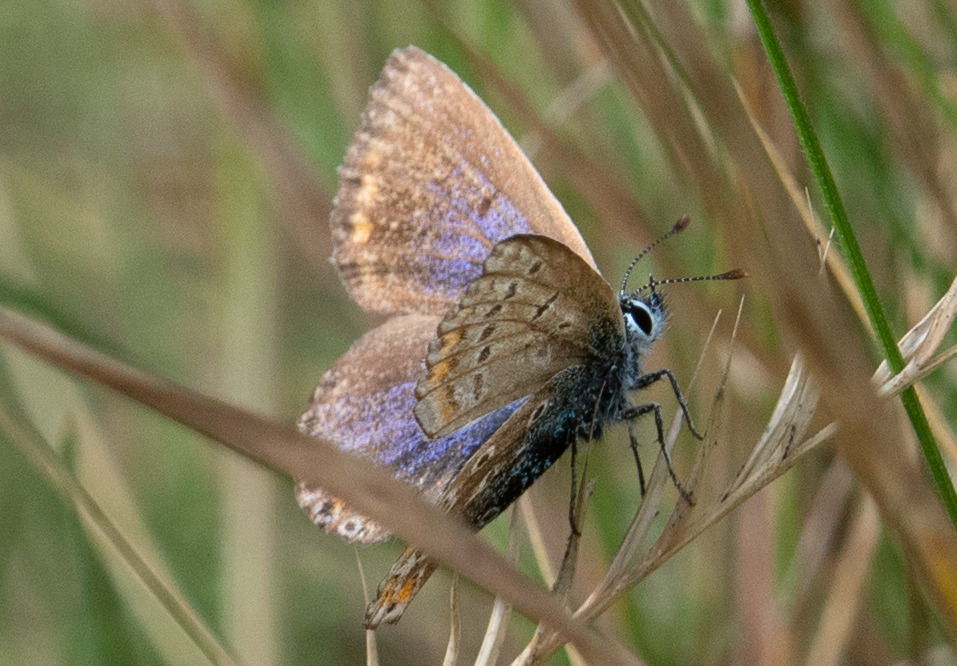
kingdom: Animalia
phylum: Arthropoda
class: Insecta
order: Lepidoptera
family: Lycaenidae
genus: Polyommatus
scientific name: Polyommatus icarus
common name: Almindelig blåfugl
